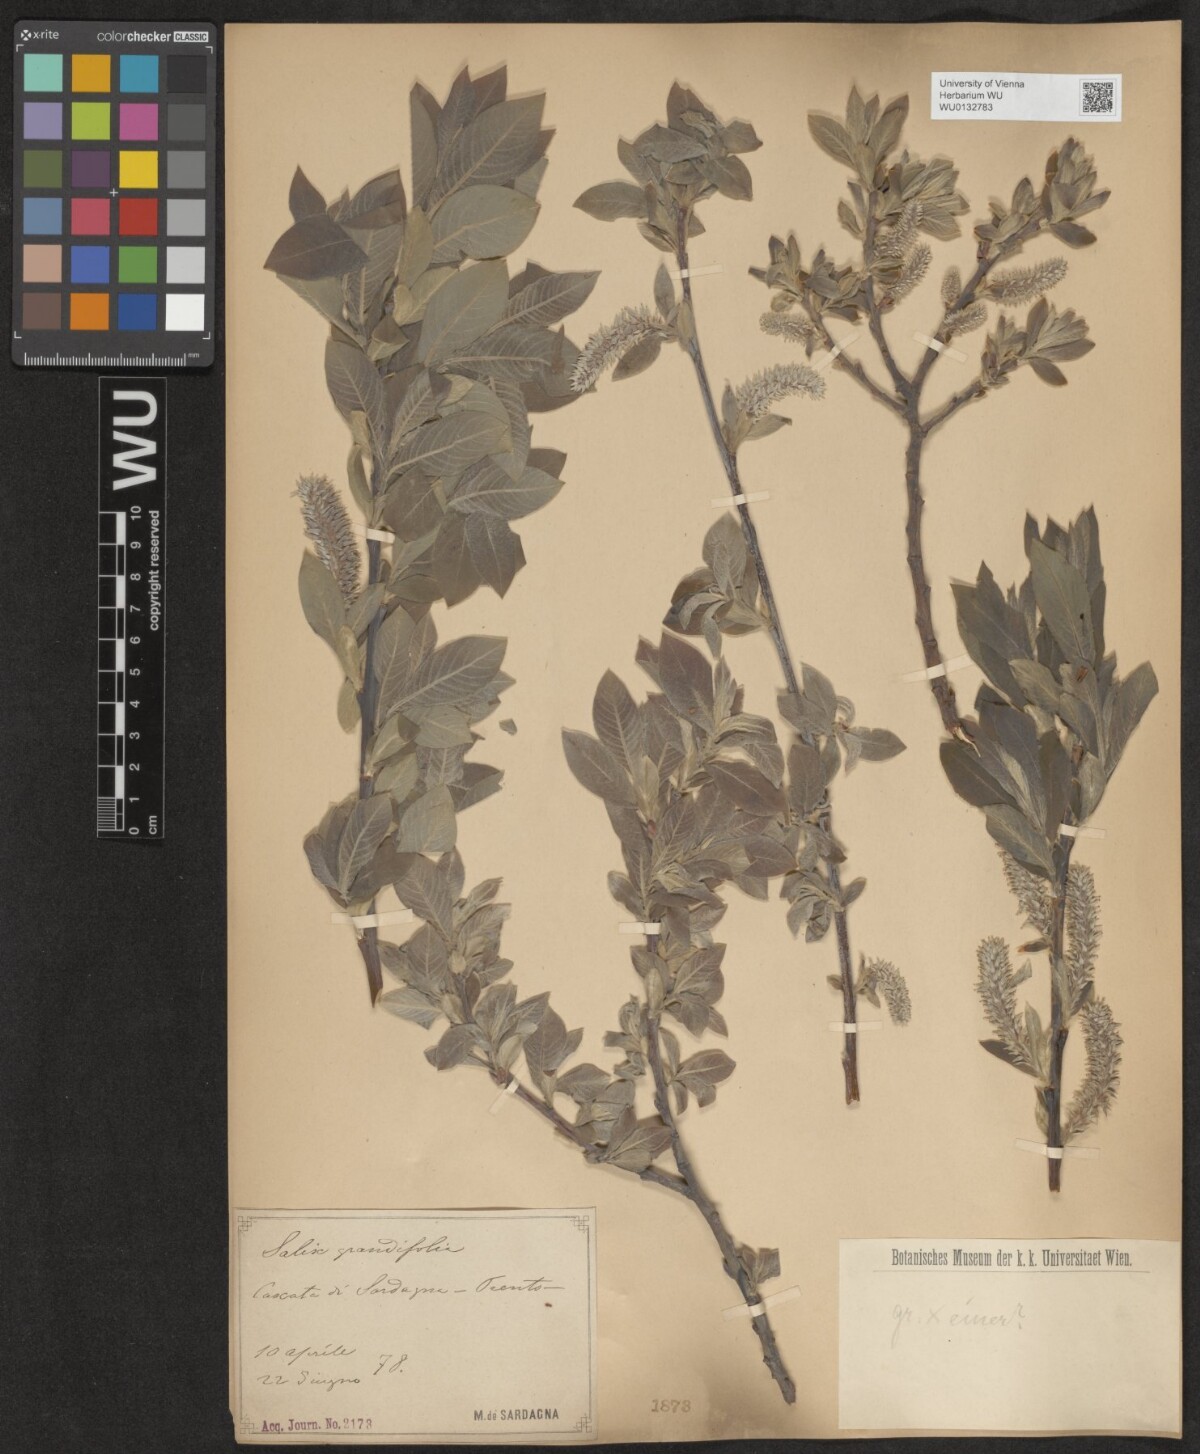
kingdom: Plantae
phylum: Tracheophyta
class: Magnoliopsida
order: Malpighiales
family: Salicaceae
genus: Salix
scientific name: Salix appendiculata
